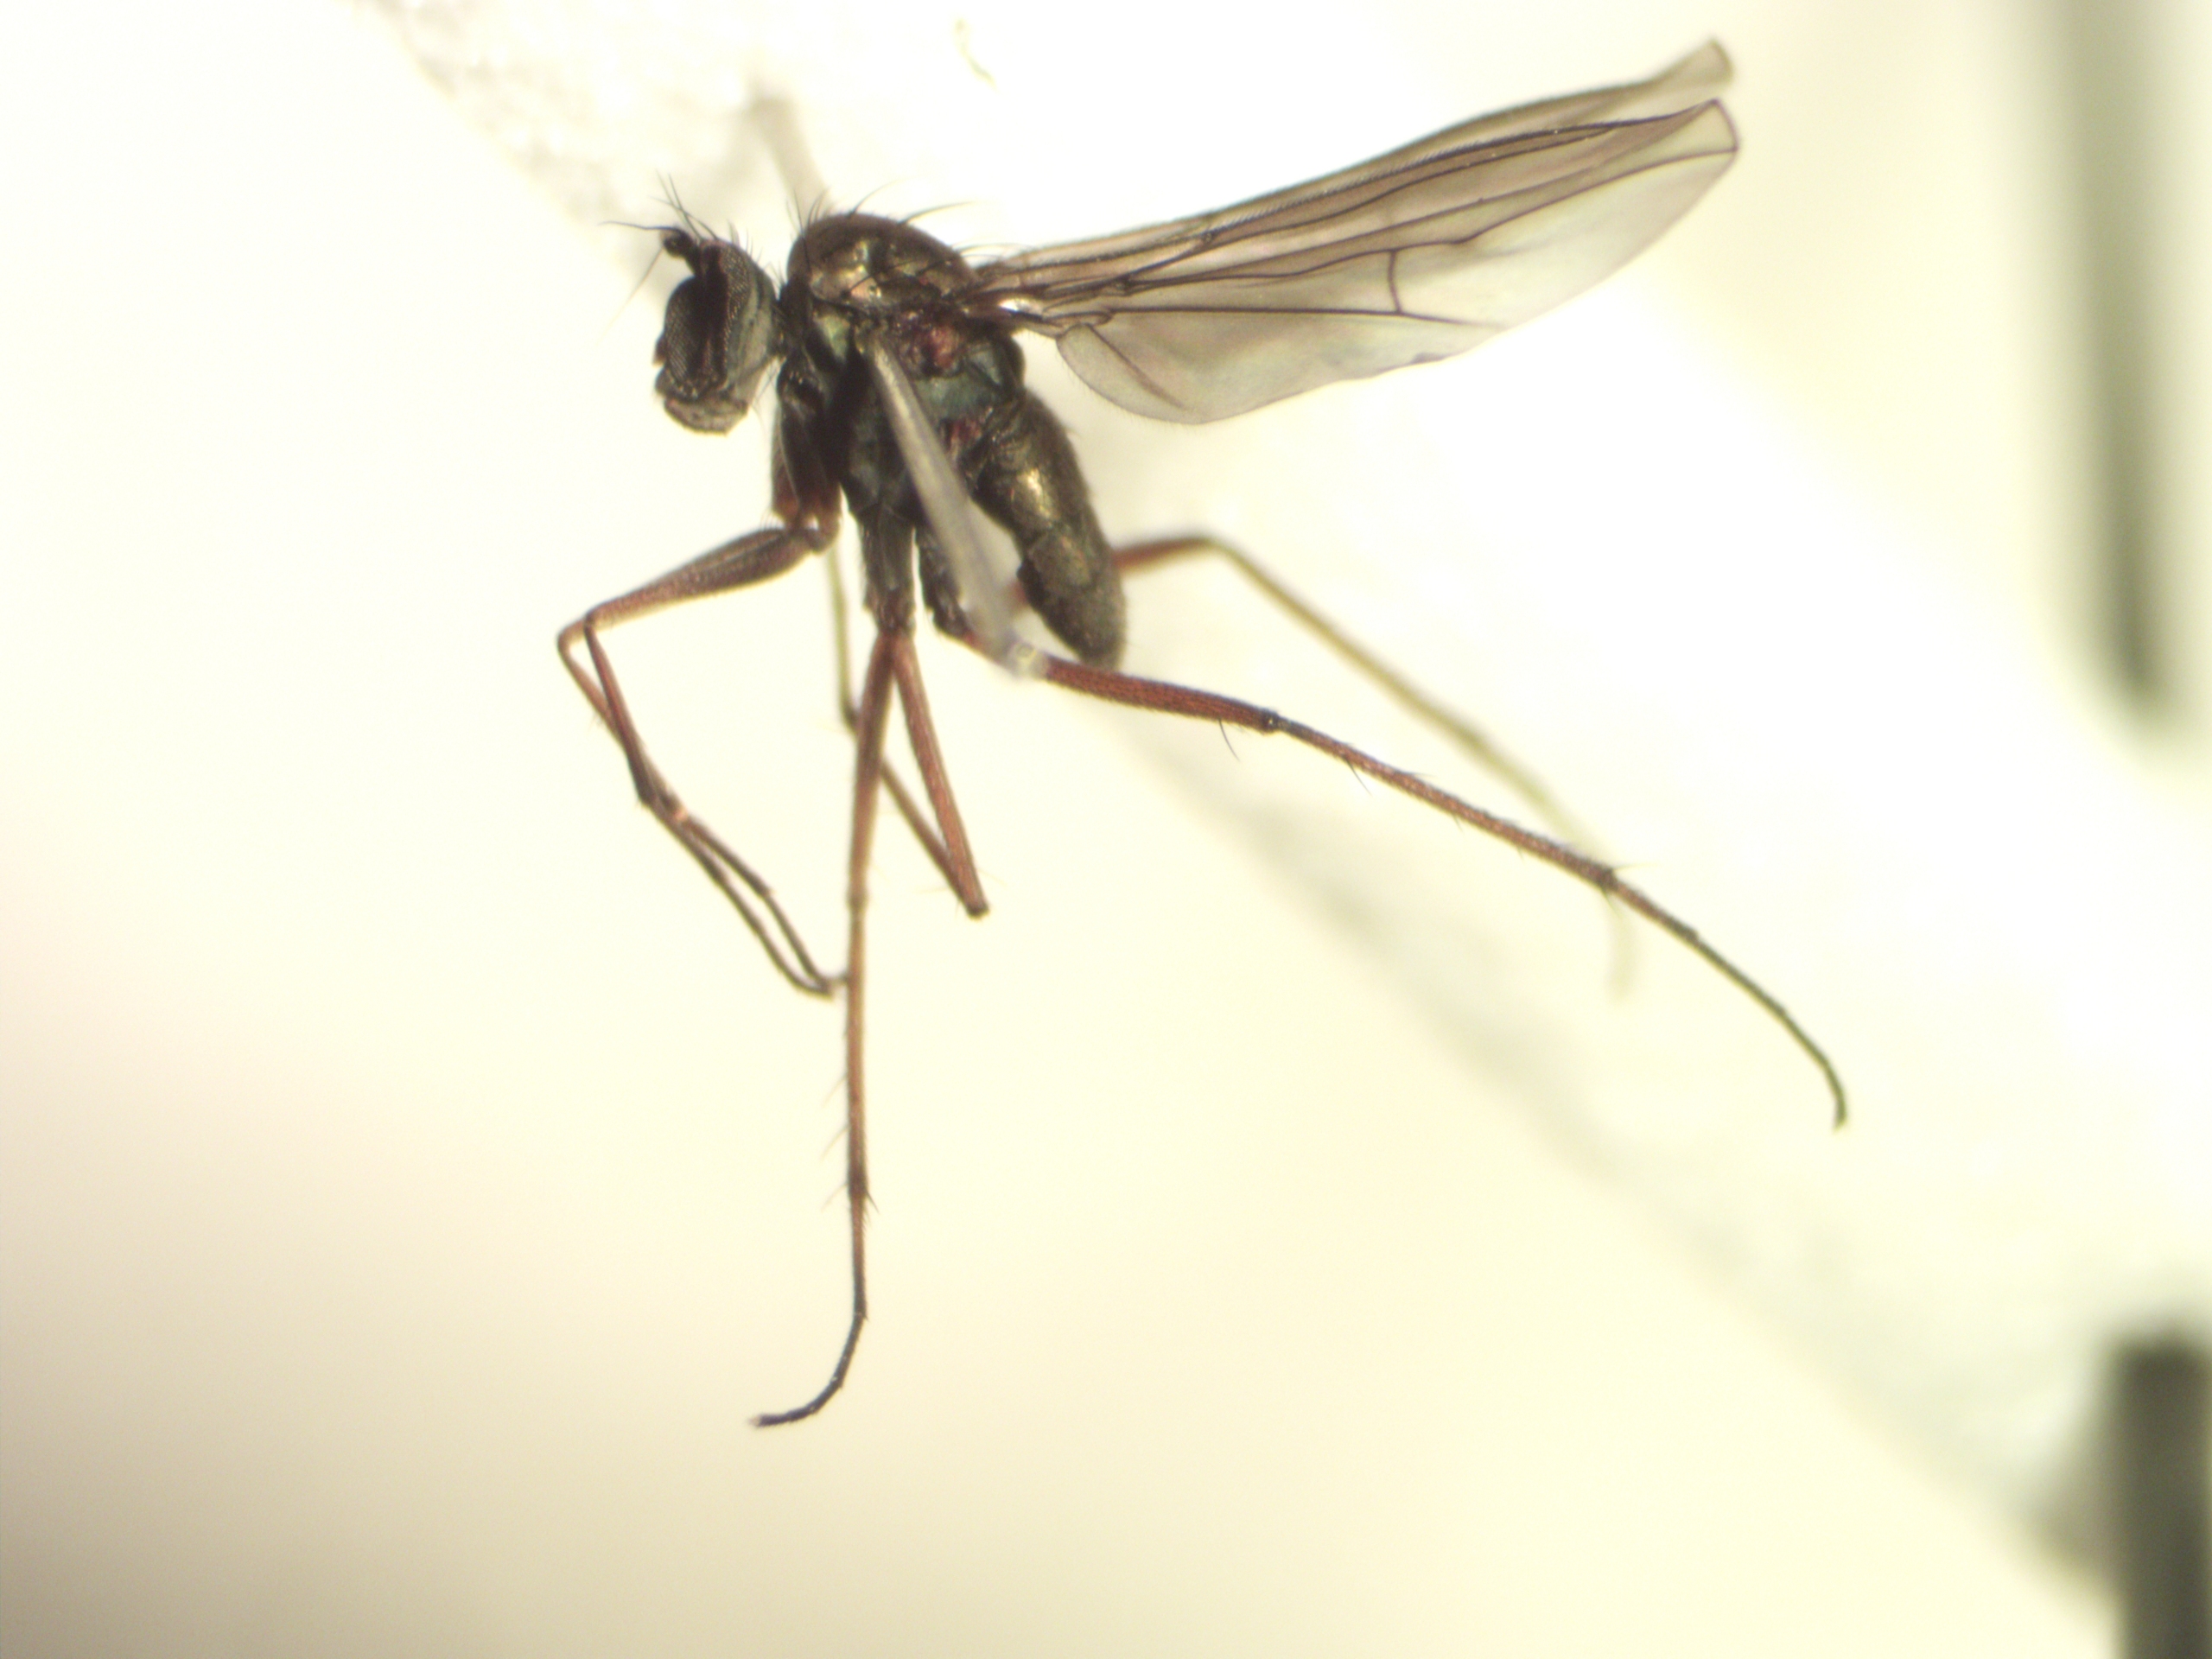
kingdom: Animalia
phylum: Arthropoda
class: Insecta
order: Diptera
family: Dolichopodidae
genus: Campsicnemus
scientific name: Campsicnemus curvipes
